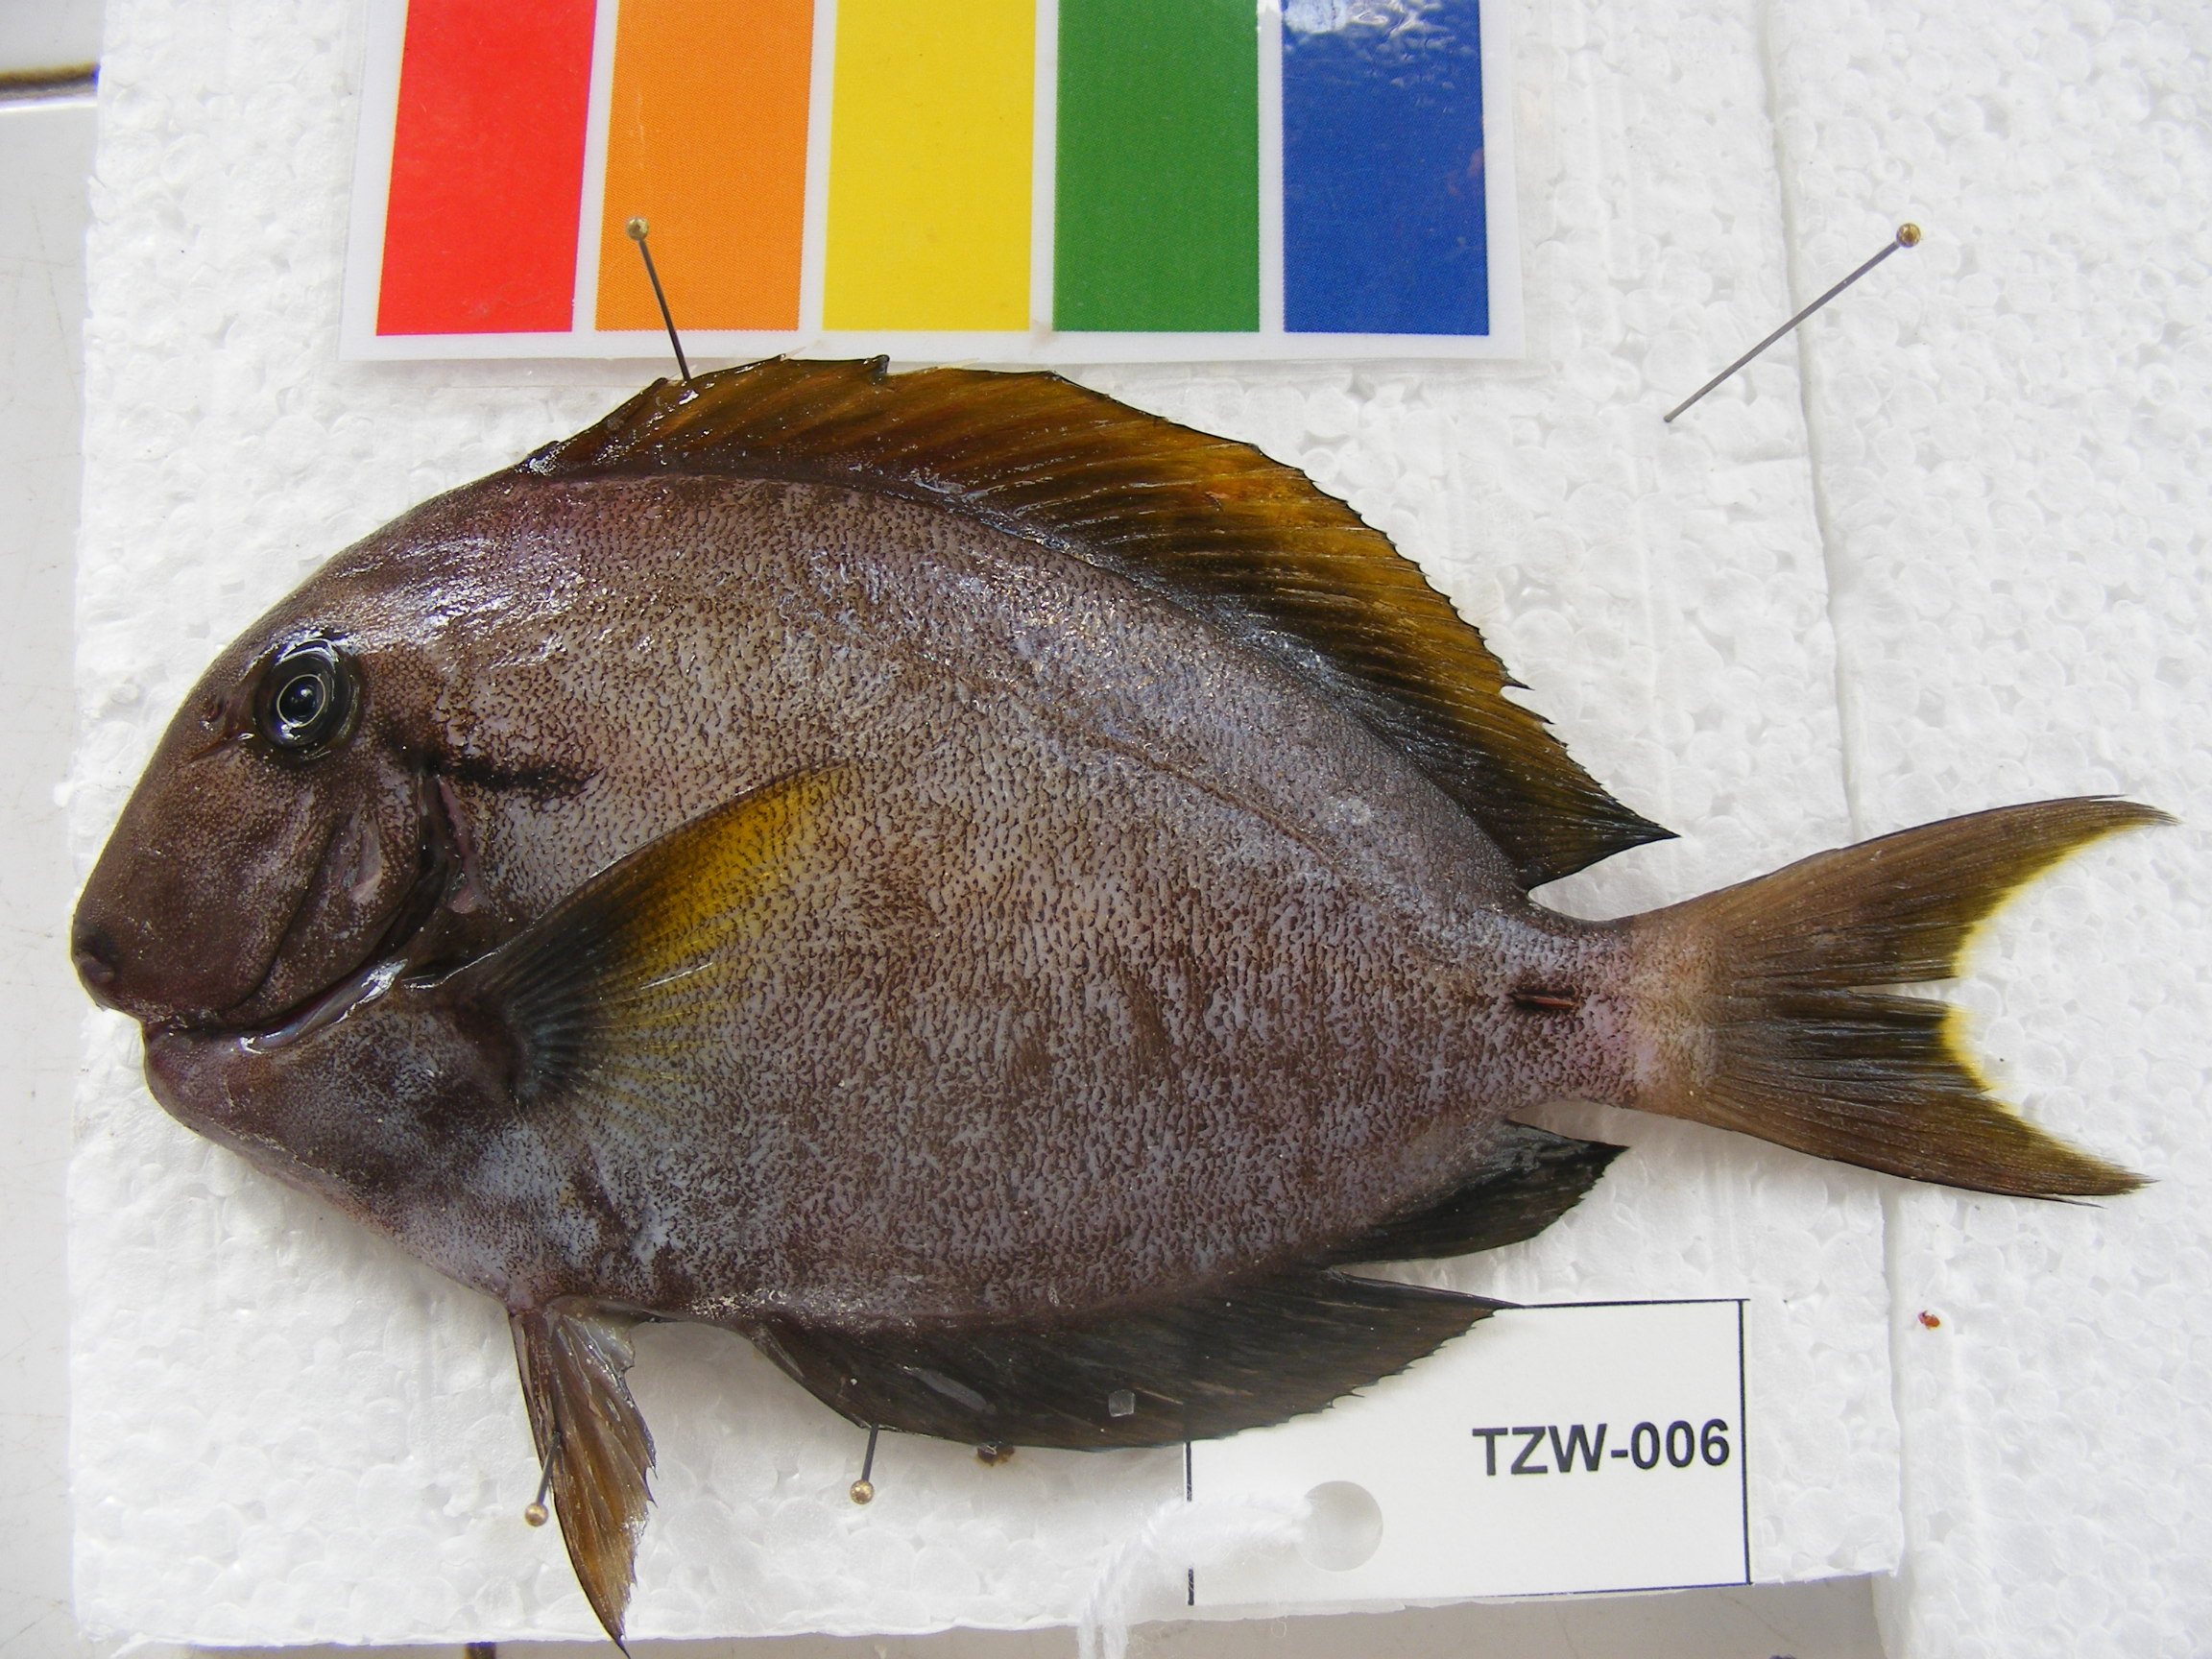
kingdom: Animalia
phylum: Chordata
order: Perciformes
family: Acanthuridae
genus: Acanthurus
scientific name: Acanthurus tennentii
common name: Doubleband surgeonfish
